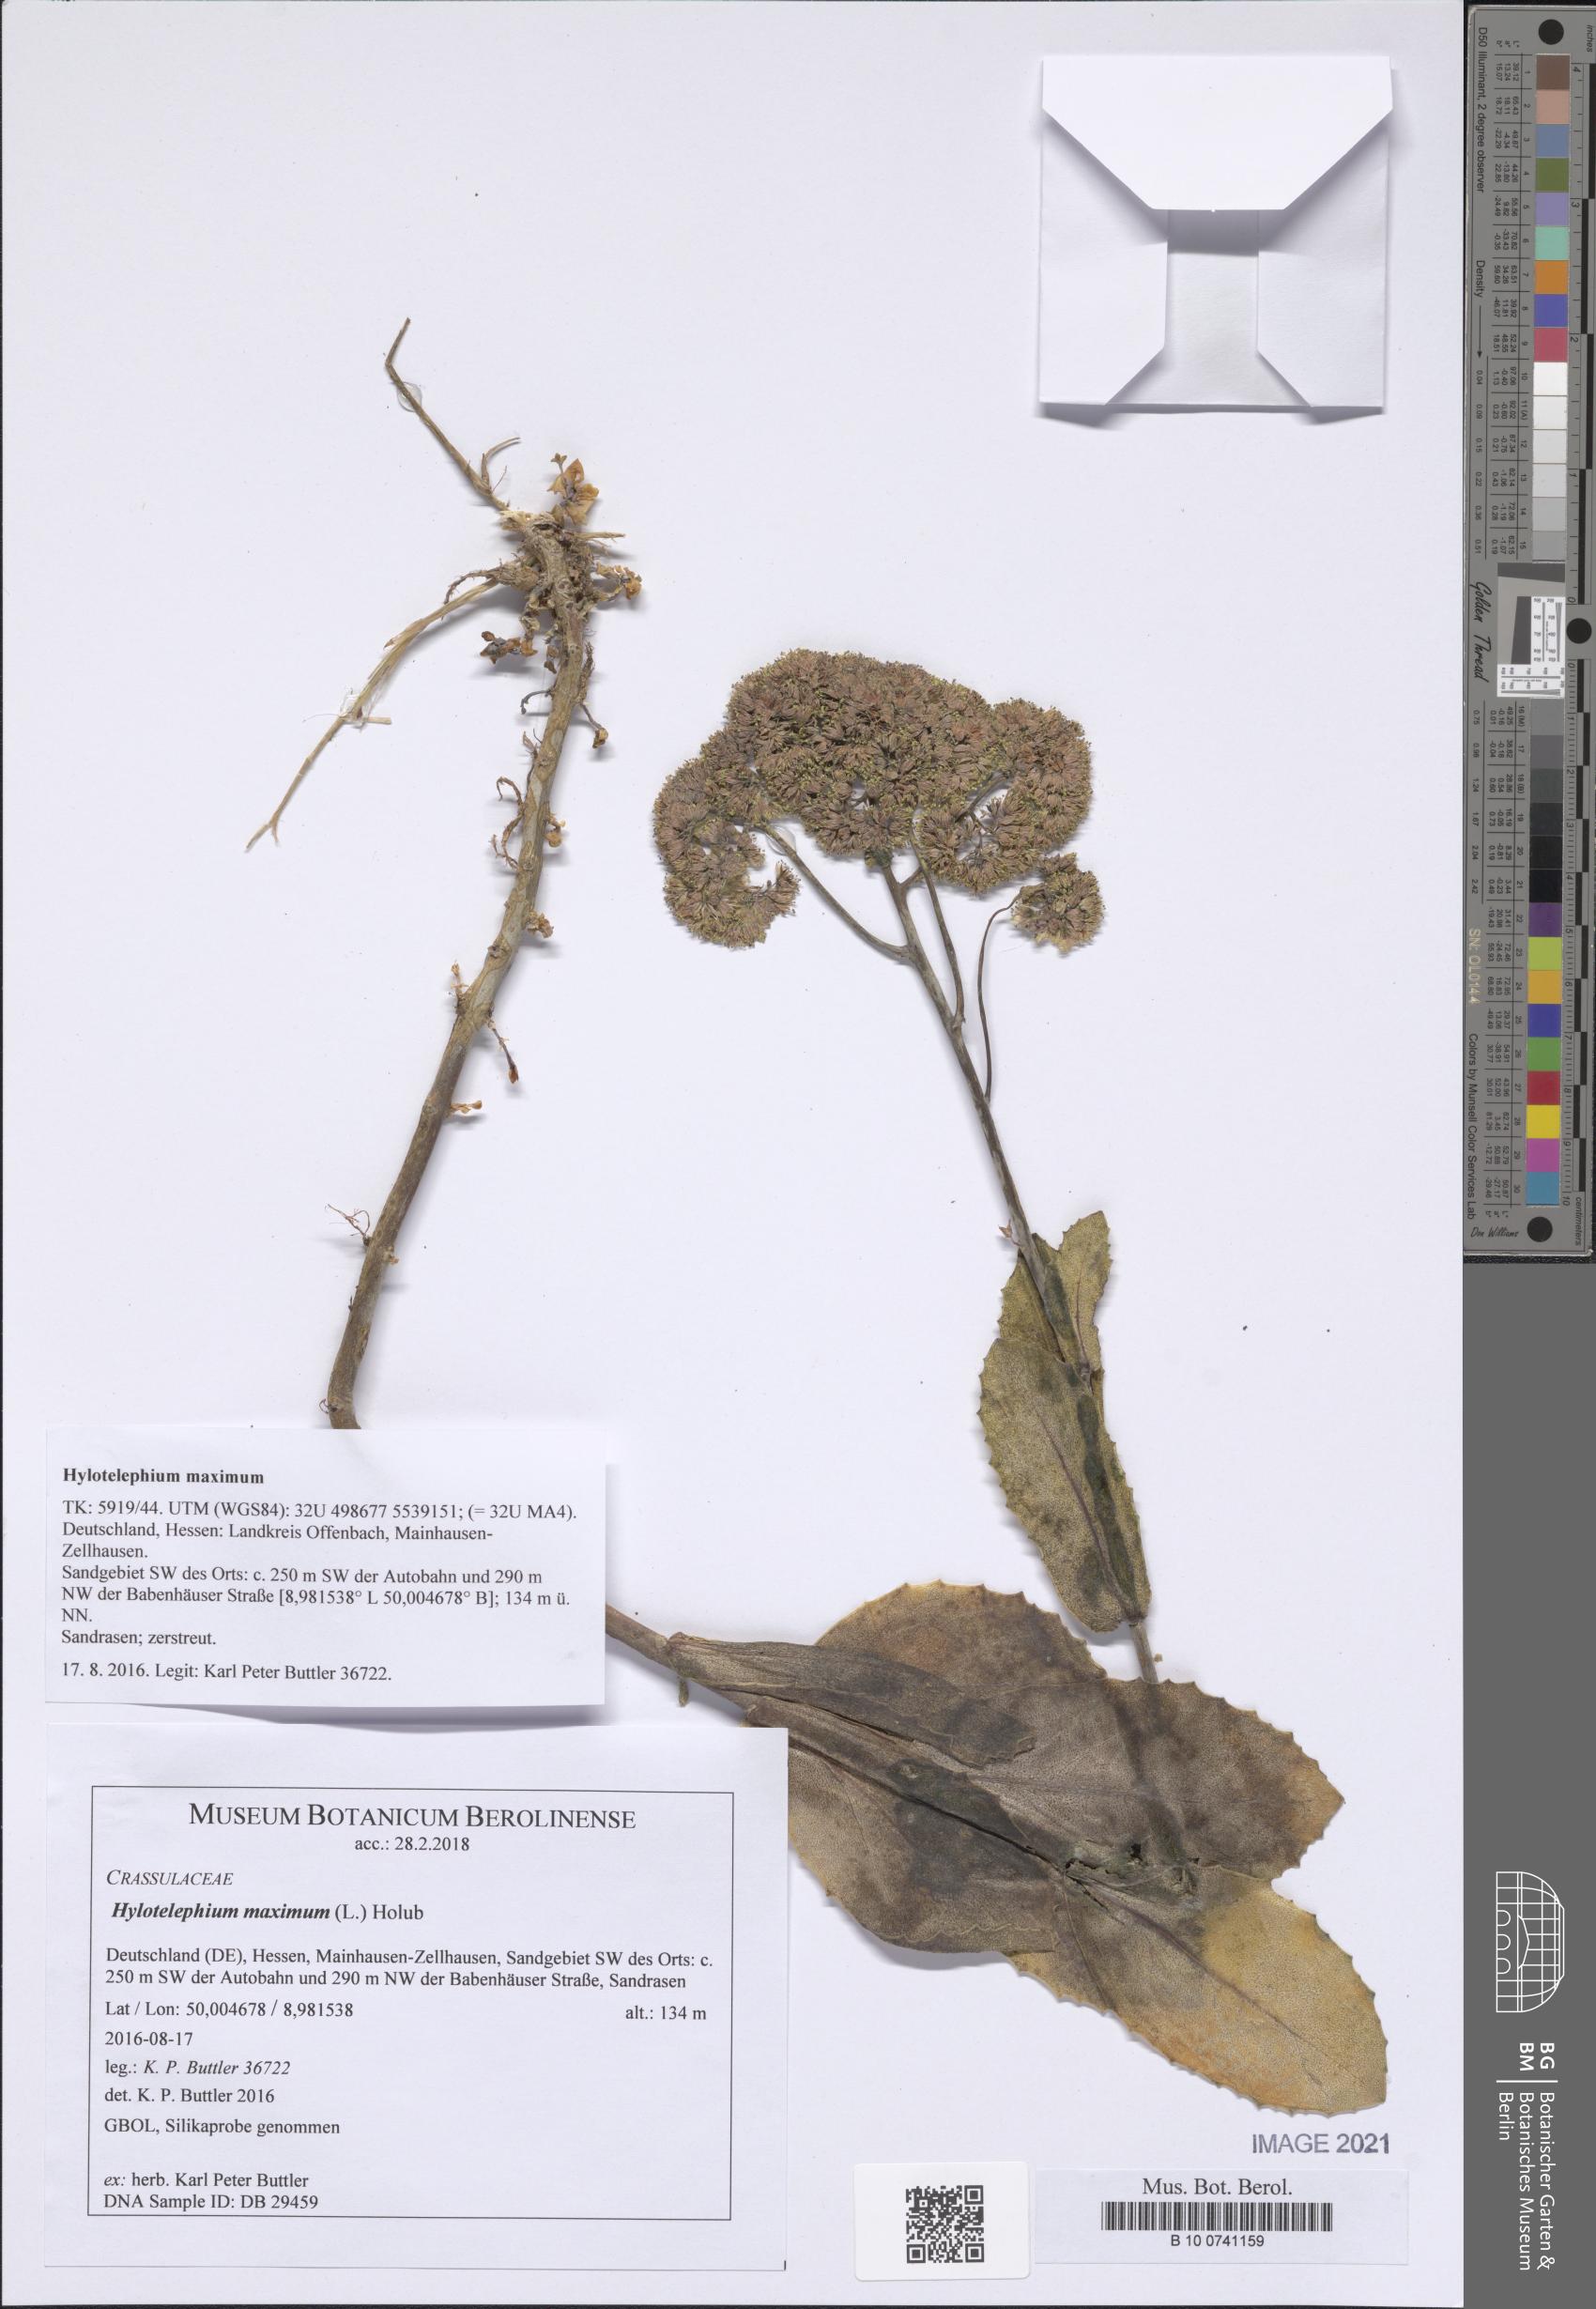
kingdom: Plantae
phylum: Tracheophyta
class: Magnoliopsida
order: Saxifragales
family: Crassulaceae
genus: Hylotelephium
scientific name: Hylotelephium maximum
